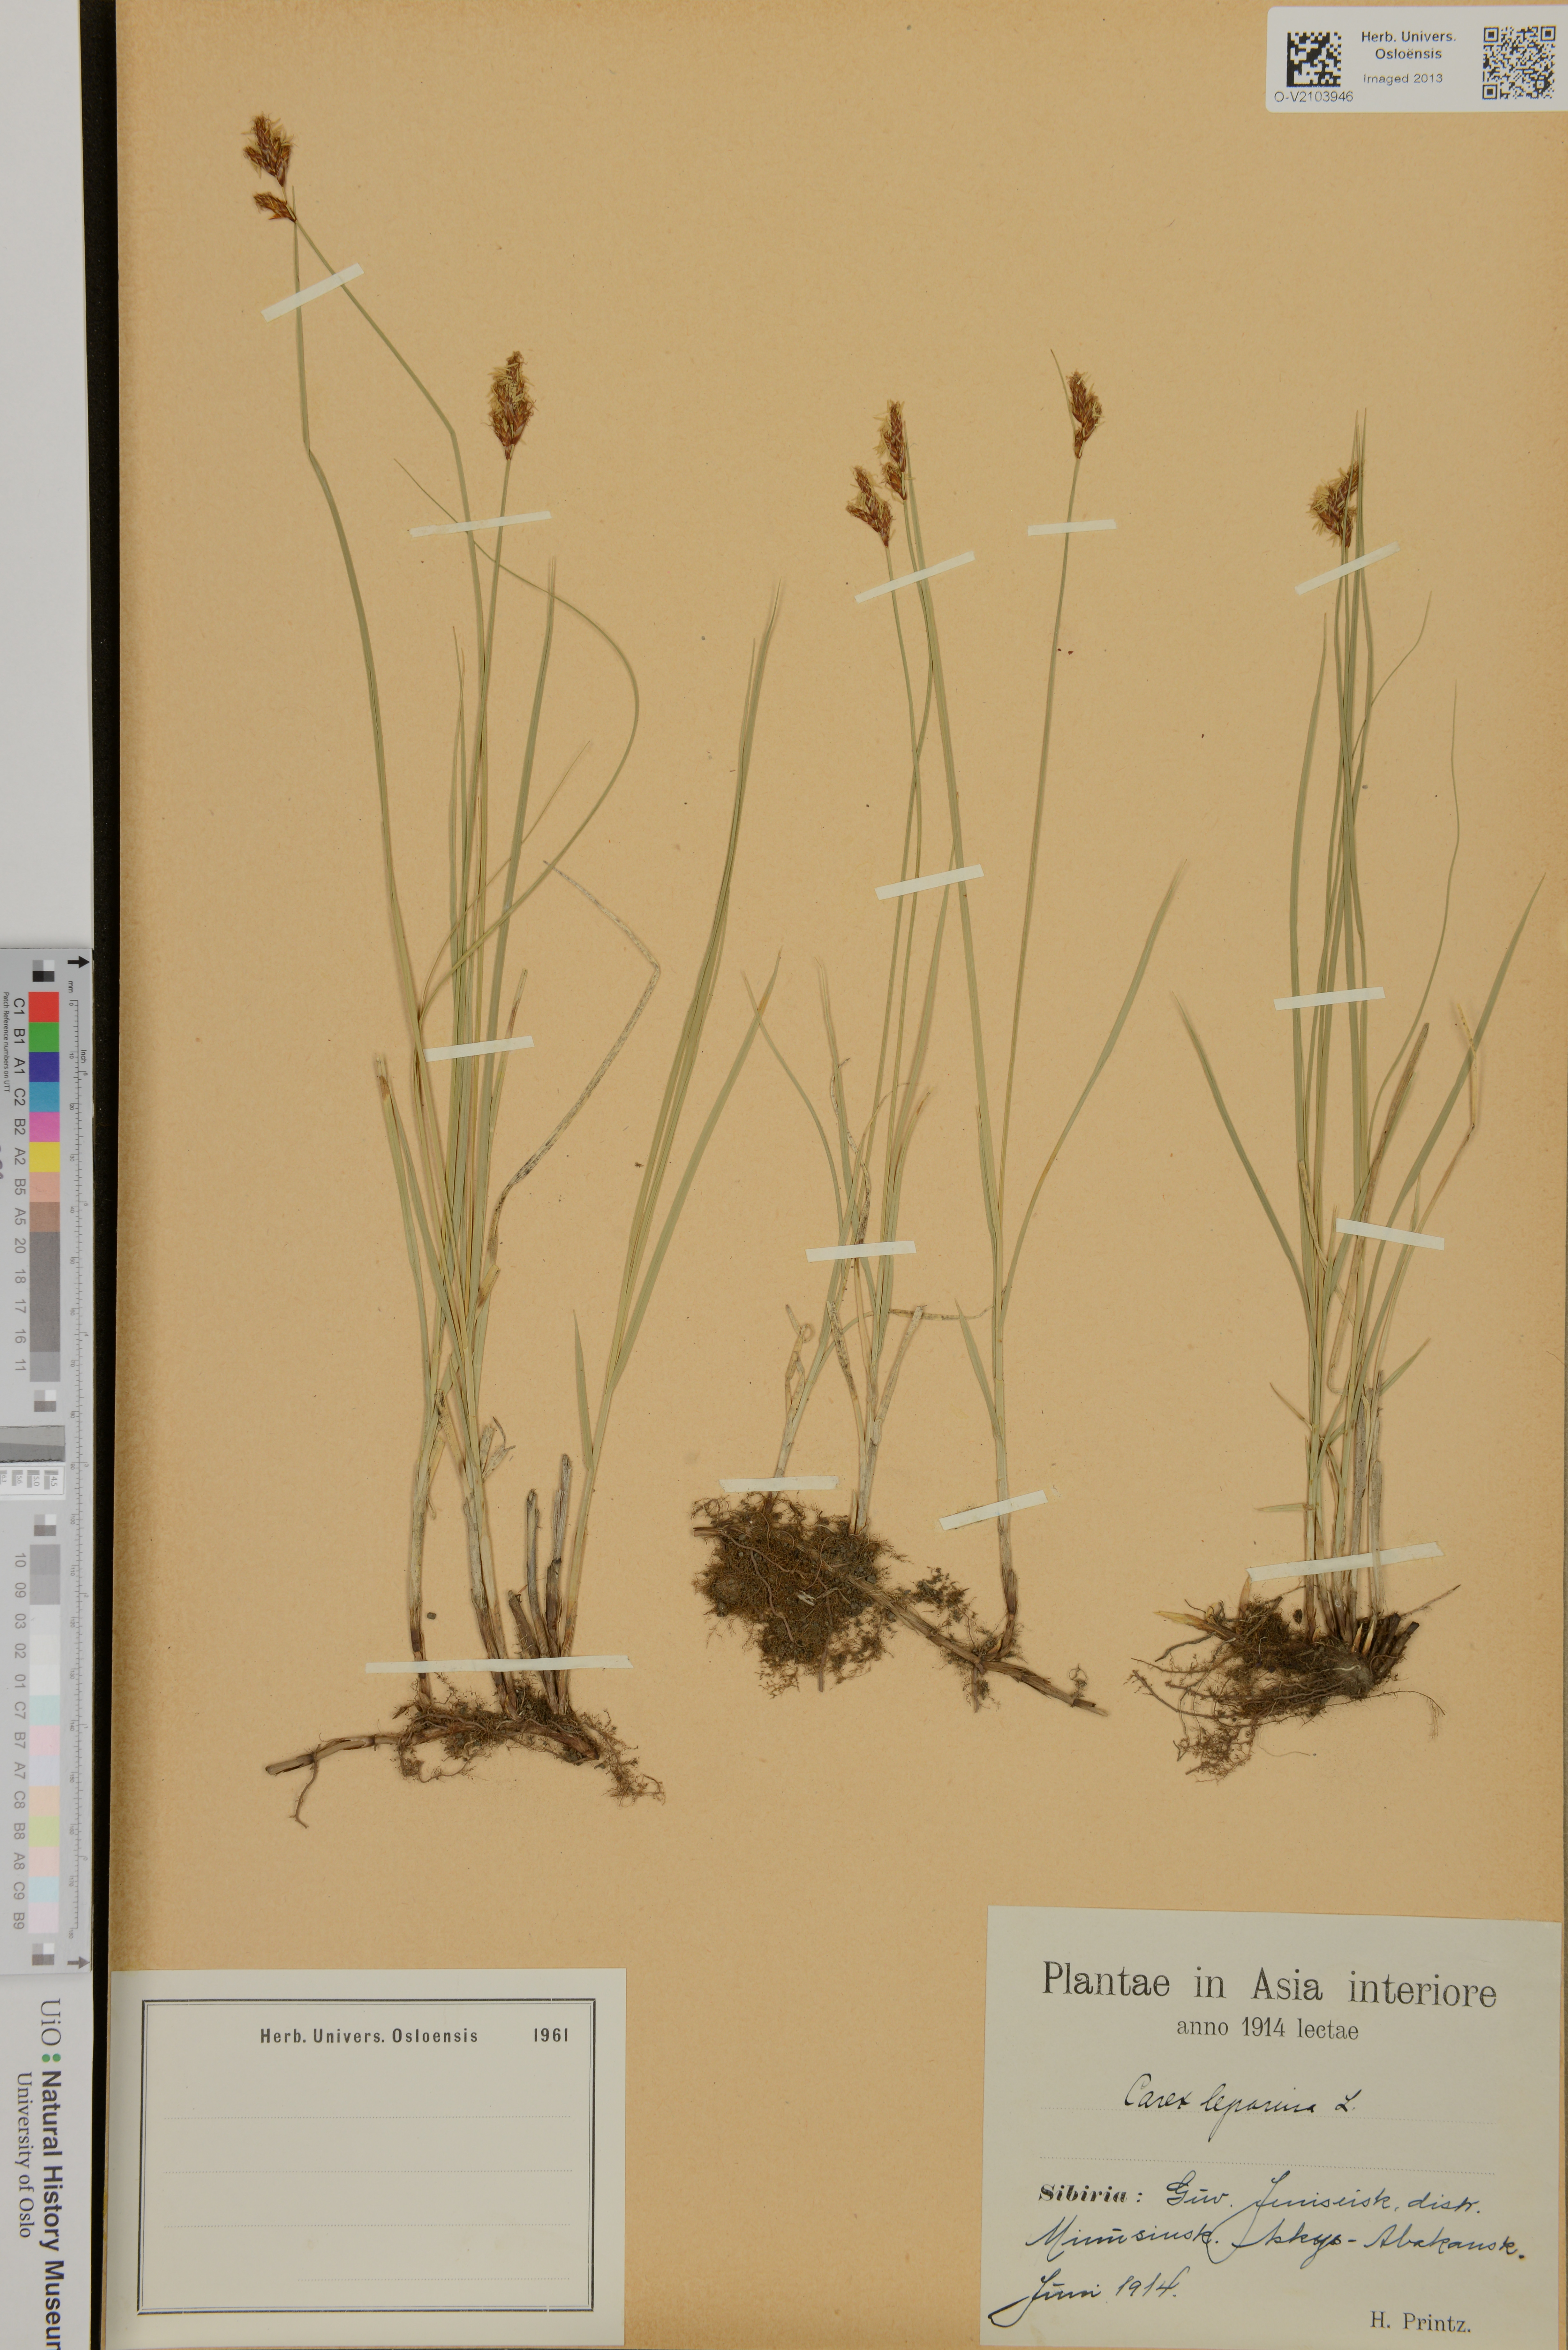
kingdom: Plantae
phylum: Tracheophyta
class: Liliopsida
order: Poales
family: Cyperaceae
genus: Carex
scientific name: Carex leporina
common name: Oval sedge
